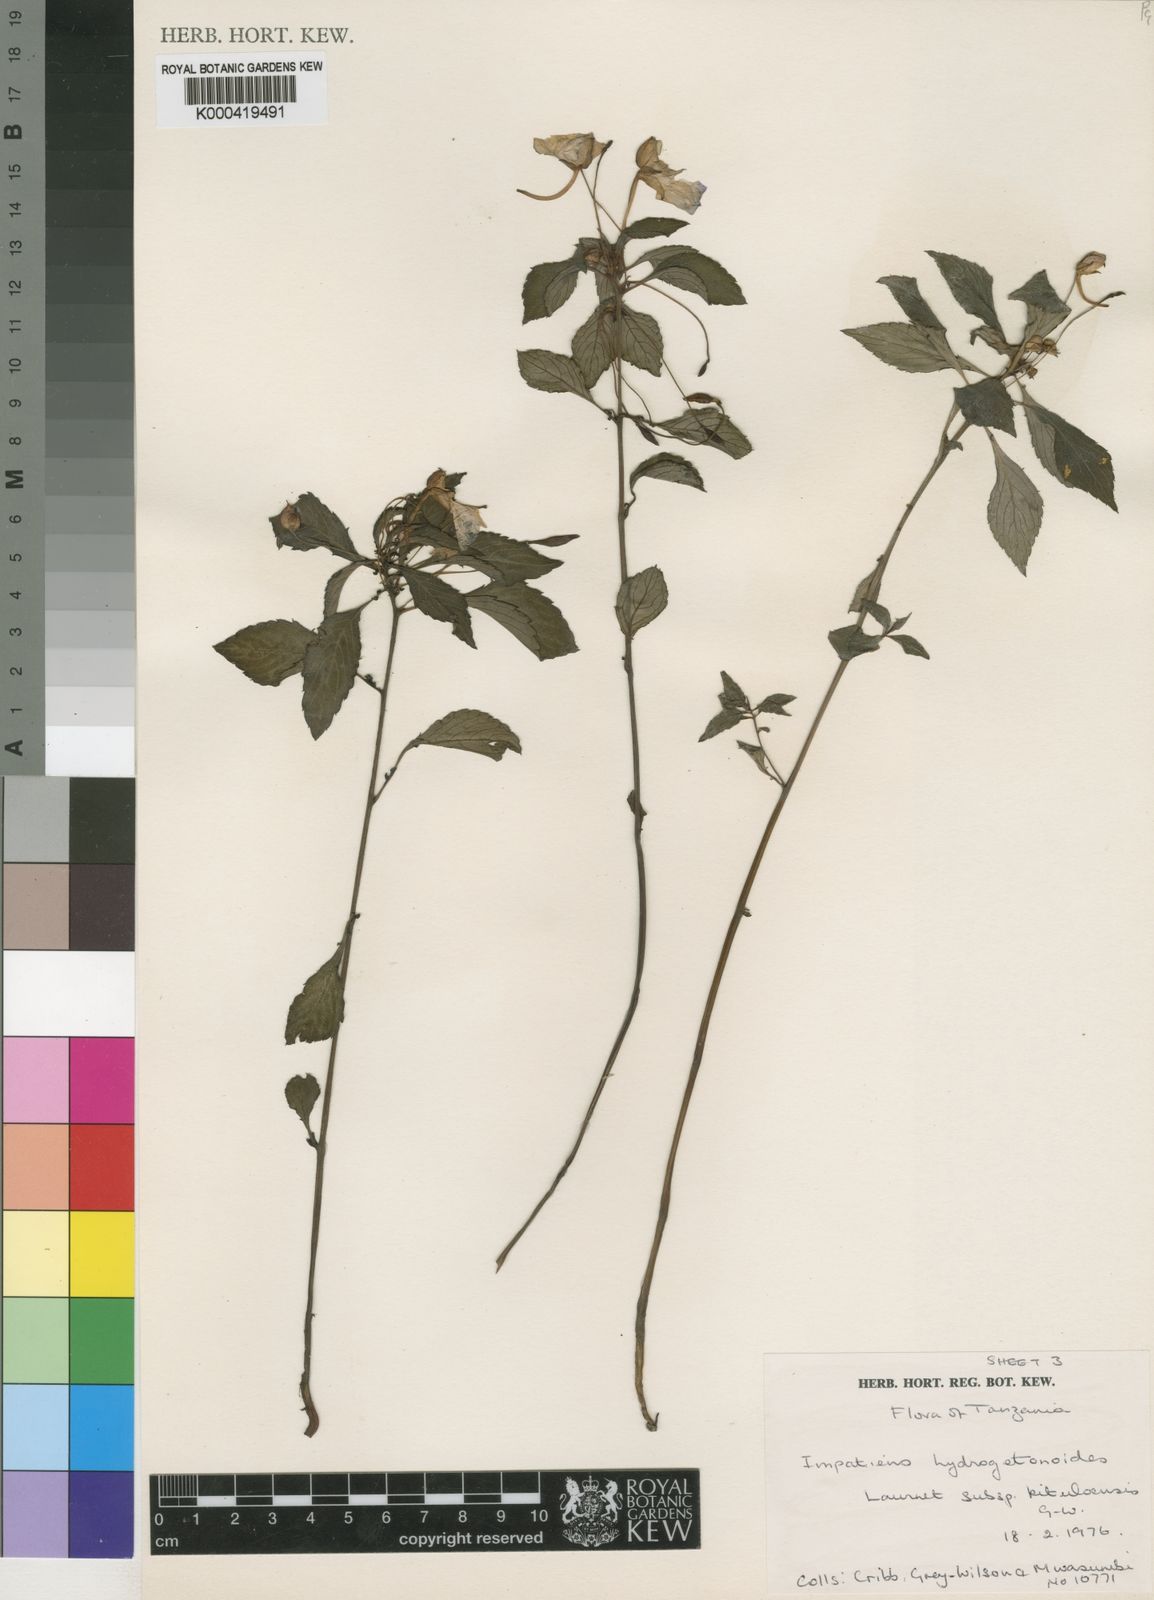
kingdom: Plantae
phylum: Tracheophyta
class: Magnoliopsida
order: Ericales
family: Balsaminaceae
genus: Impatiens
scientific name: Impatiens hydrogetonoides
